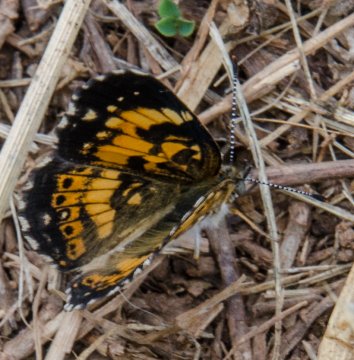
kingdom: Animalia
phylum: Arthropoda
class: Insecta
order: Lepidoptera
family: Nymphalidae
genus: Chlosyne
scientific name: Chlosyne nycteis
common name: Silvery Checkerspot
